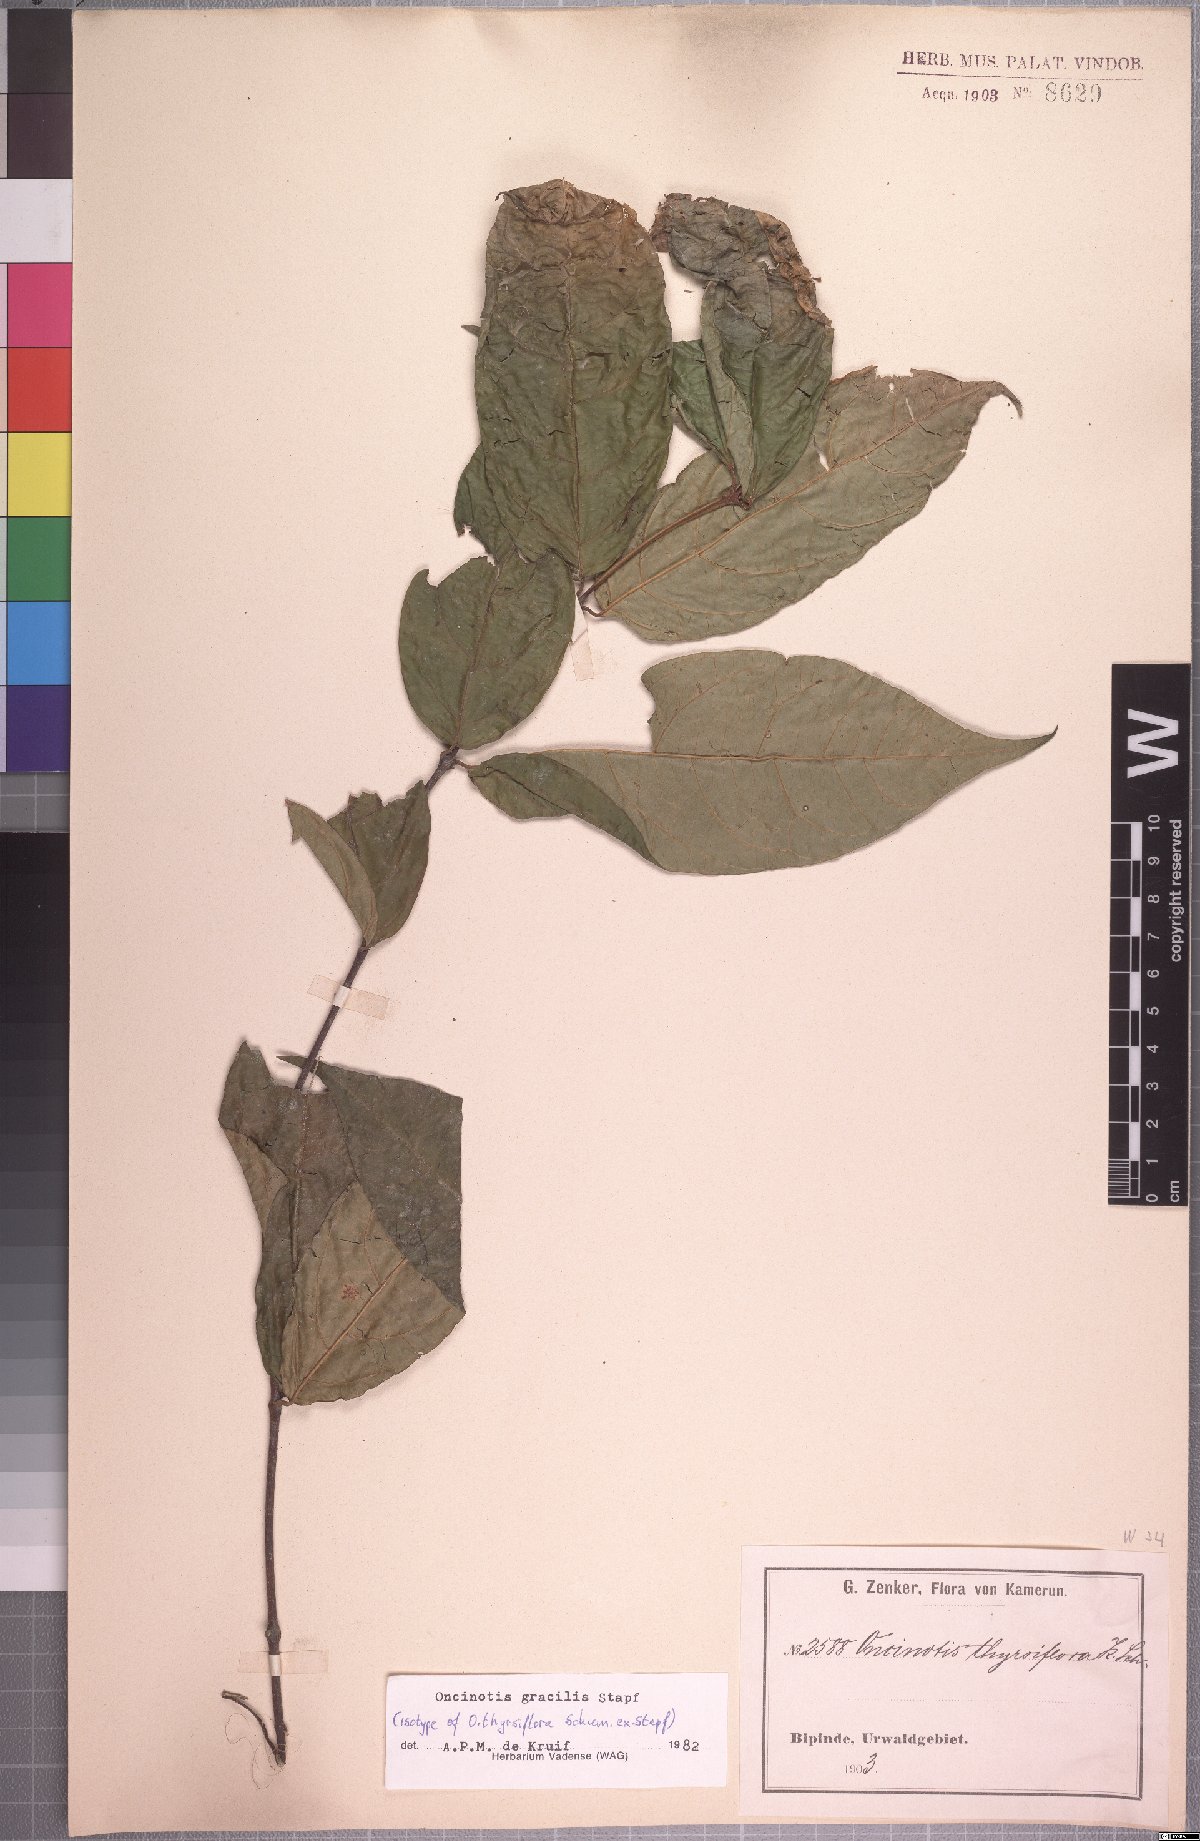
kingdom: Plantae
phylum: Tracheophyta
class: Magnoliopsida
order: Gentianales
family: Apocynaceae
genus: Oncinotis
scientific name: Oncinotis gracilis
